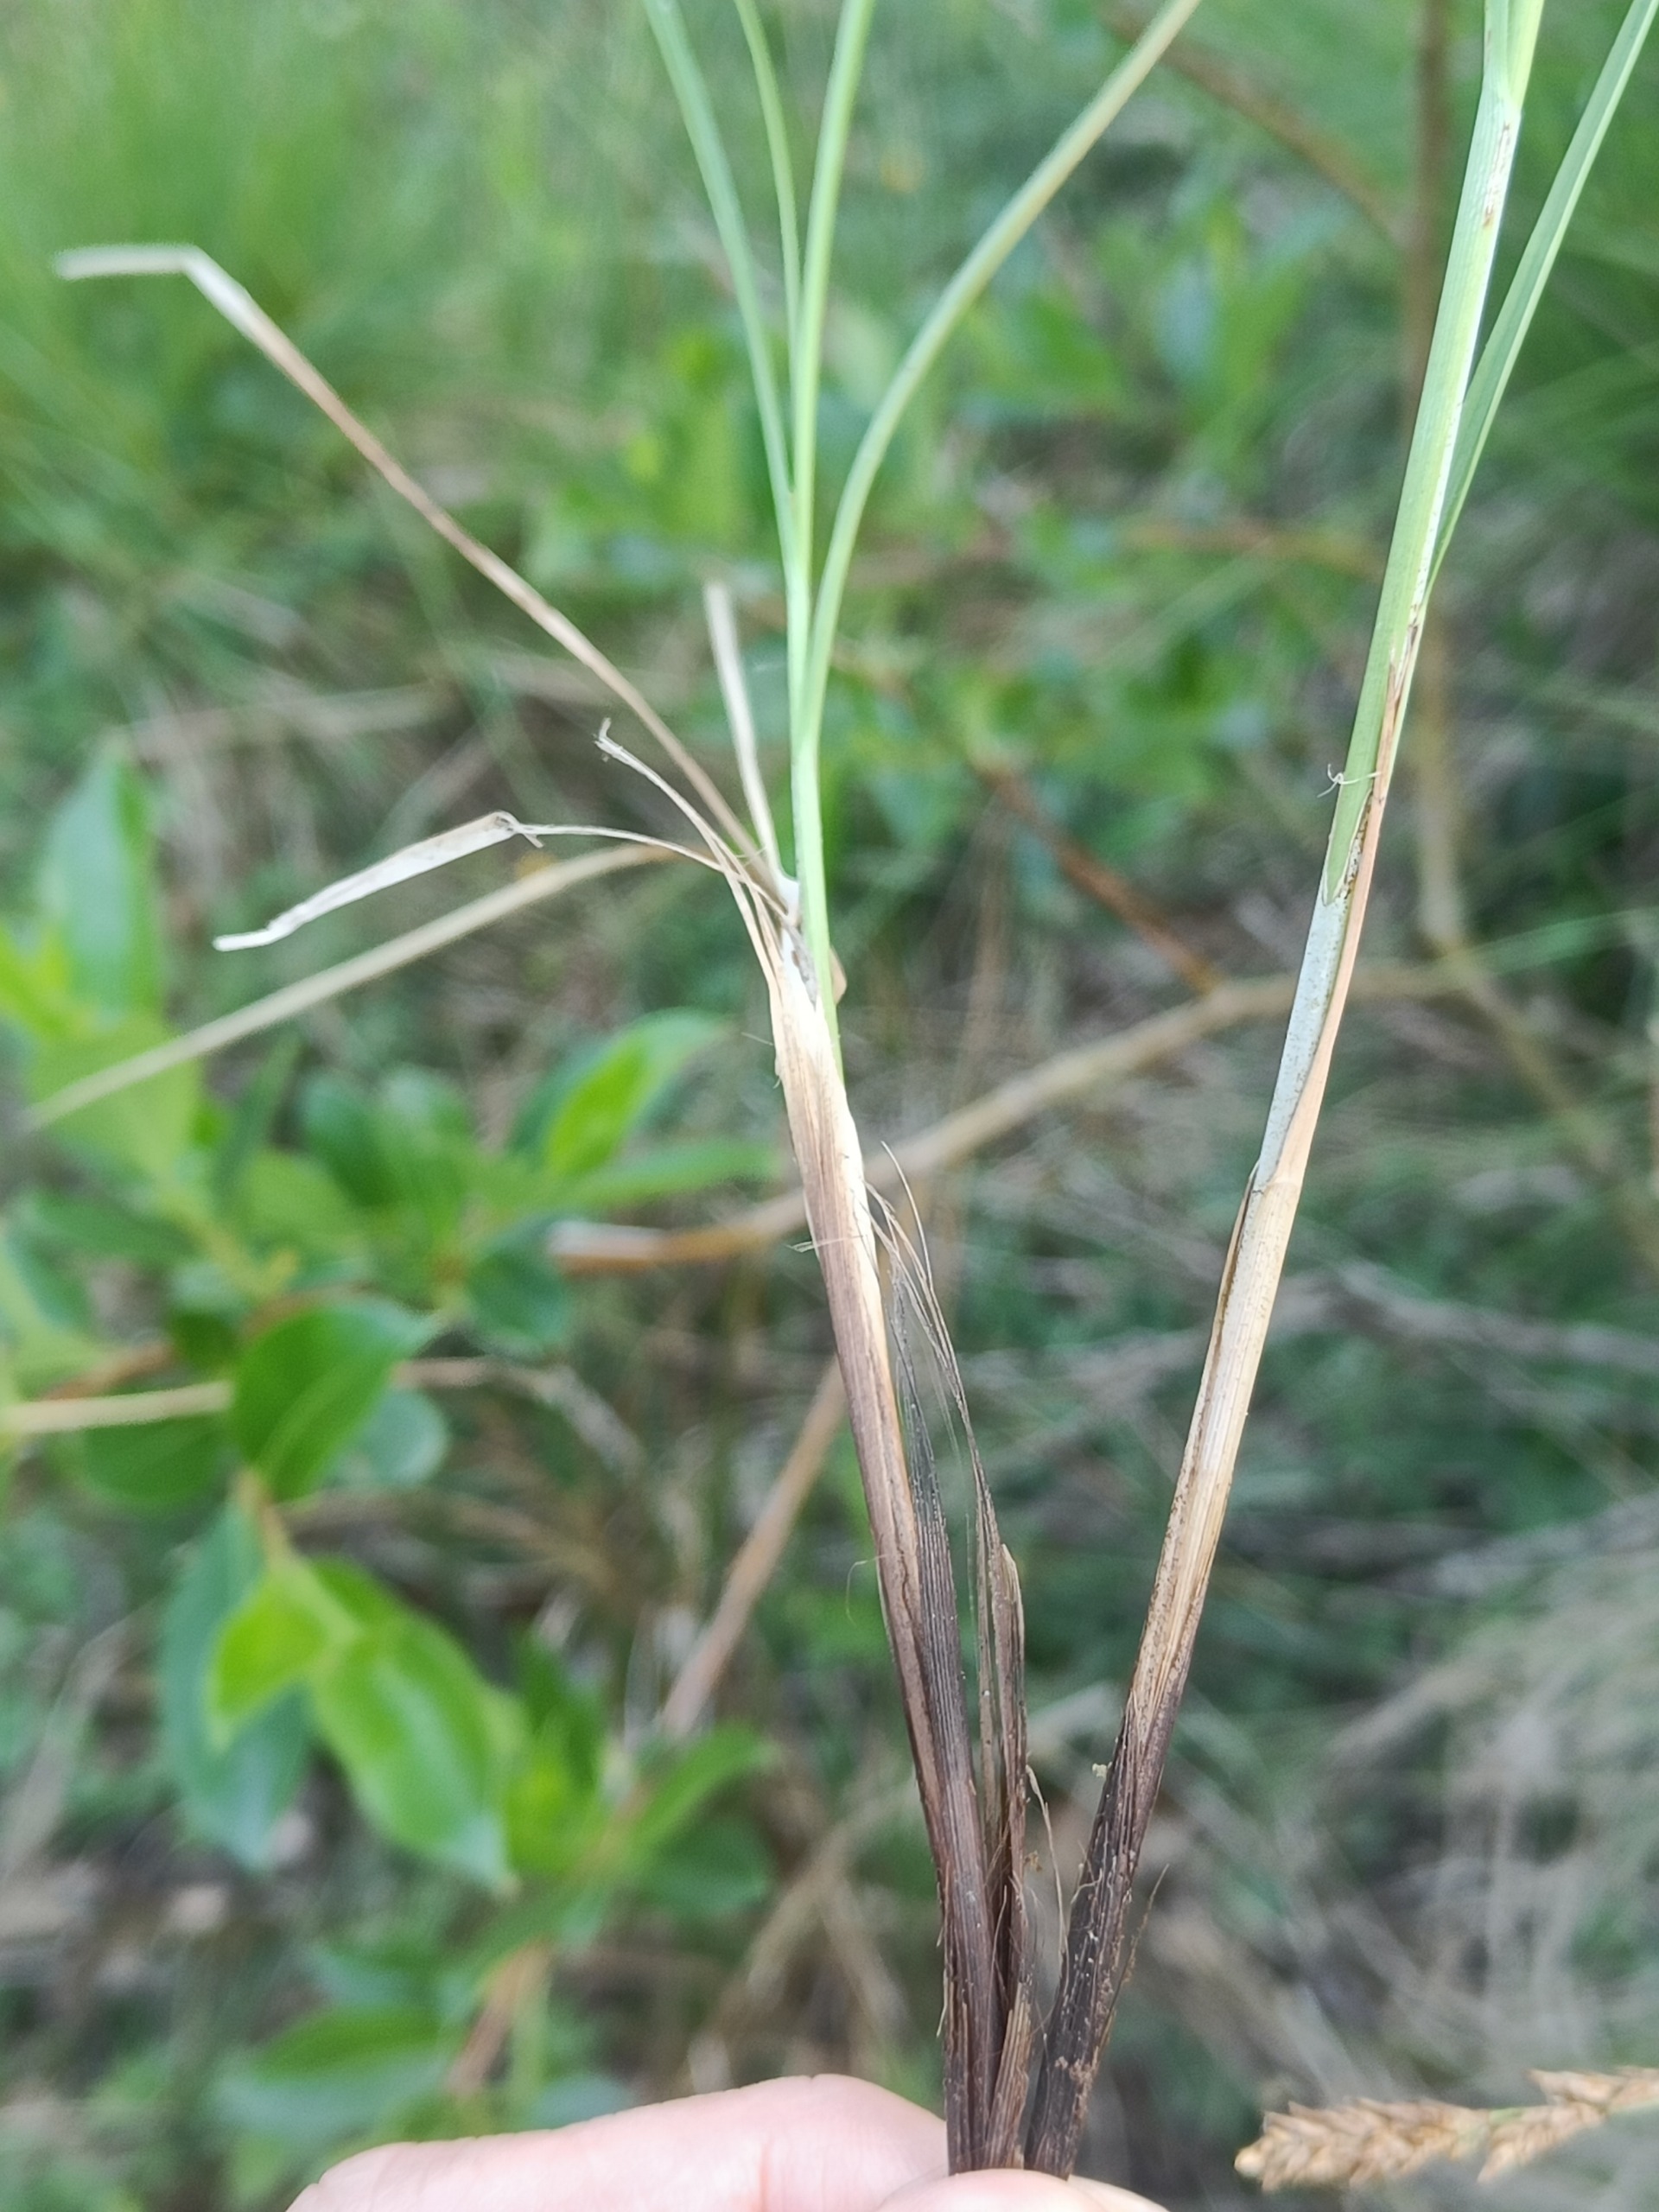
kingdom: Plantae
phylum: Tracheophyta
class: Liliopsida
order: Poales
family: Cyperaceae
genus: Carex
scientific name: Carex appropinquata
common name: Langakset star
